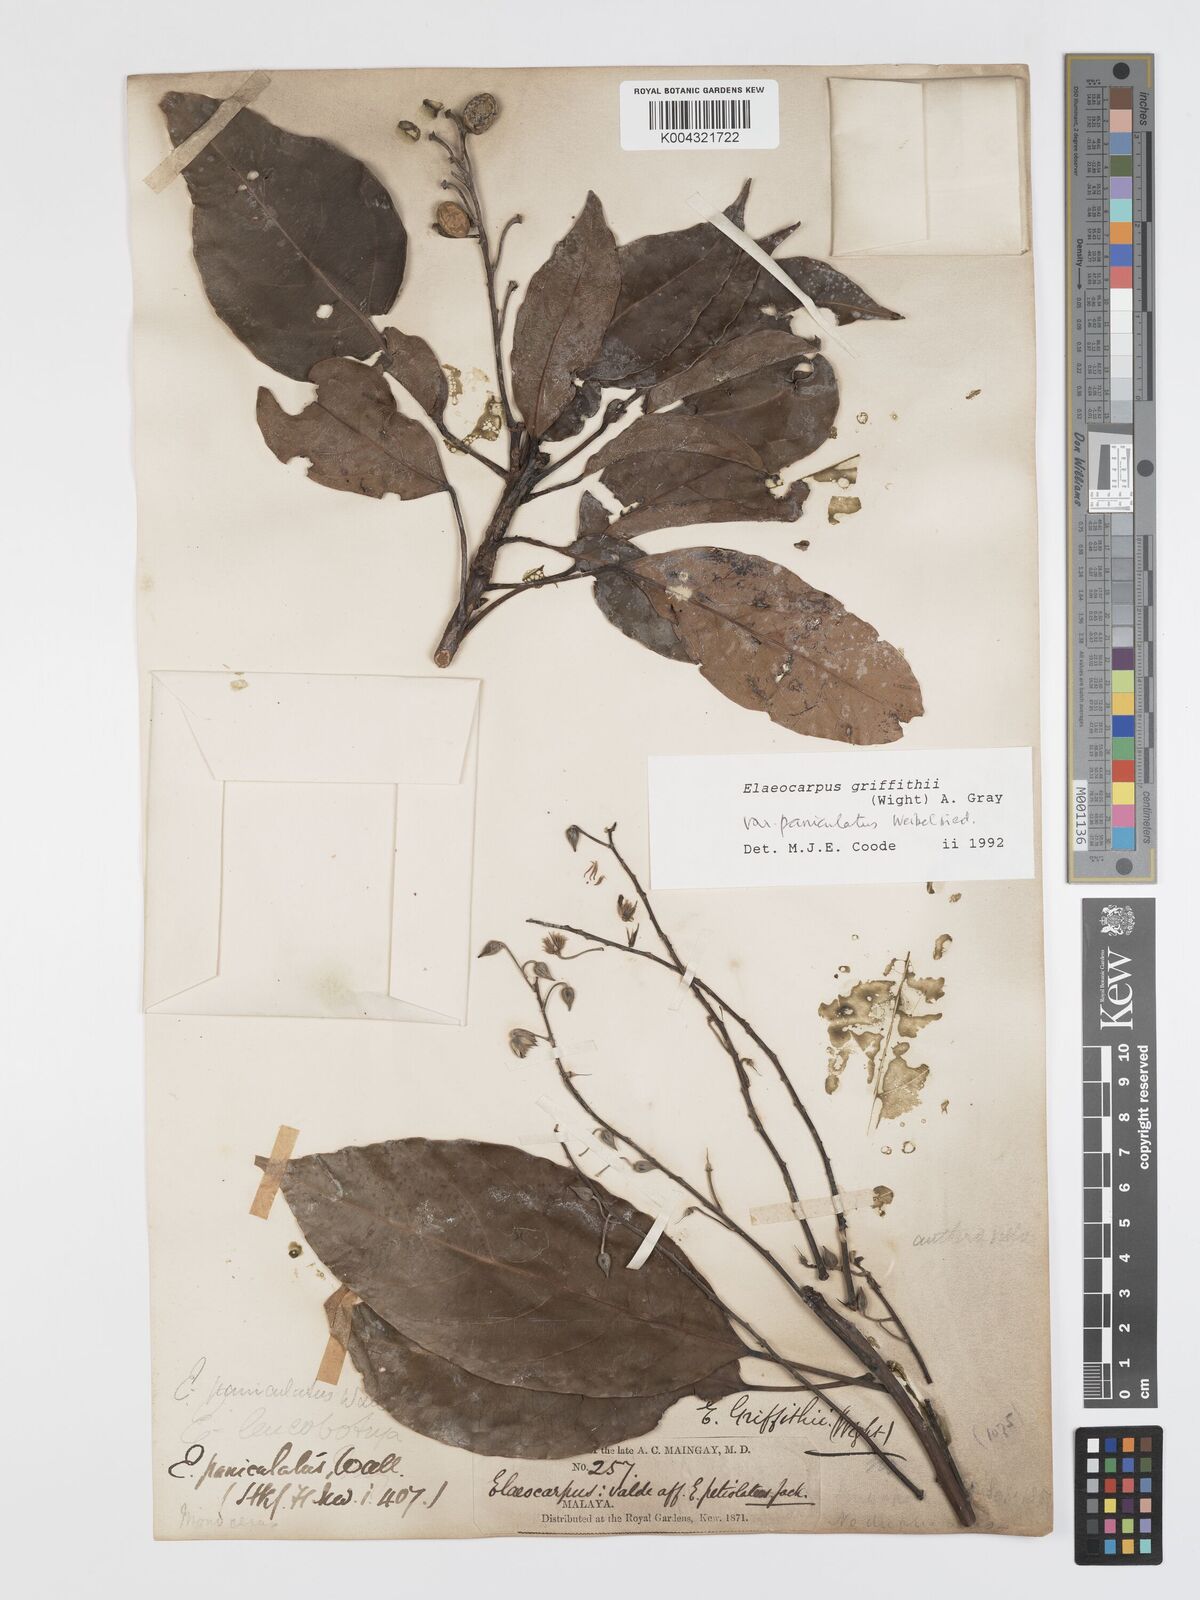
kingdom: Plantae
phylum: Tracheophyta
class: Magnoliopsida
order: Oxalidales
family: Elaeocarpaceae
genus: Elaeocarpus
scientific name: Elaeocarpus griffithii
